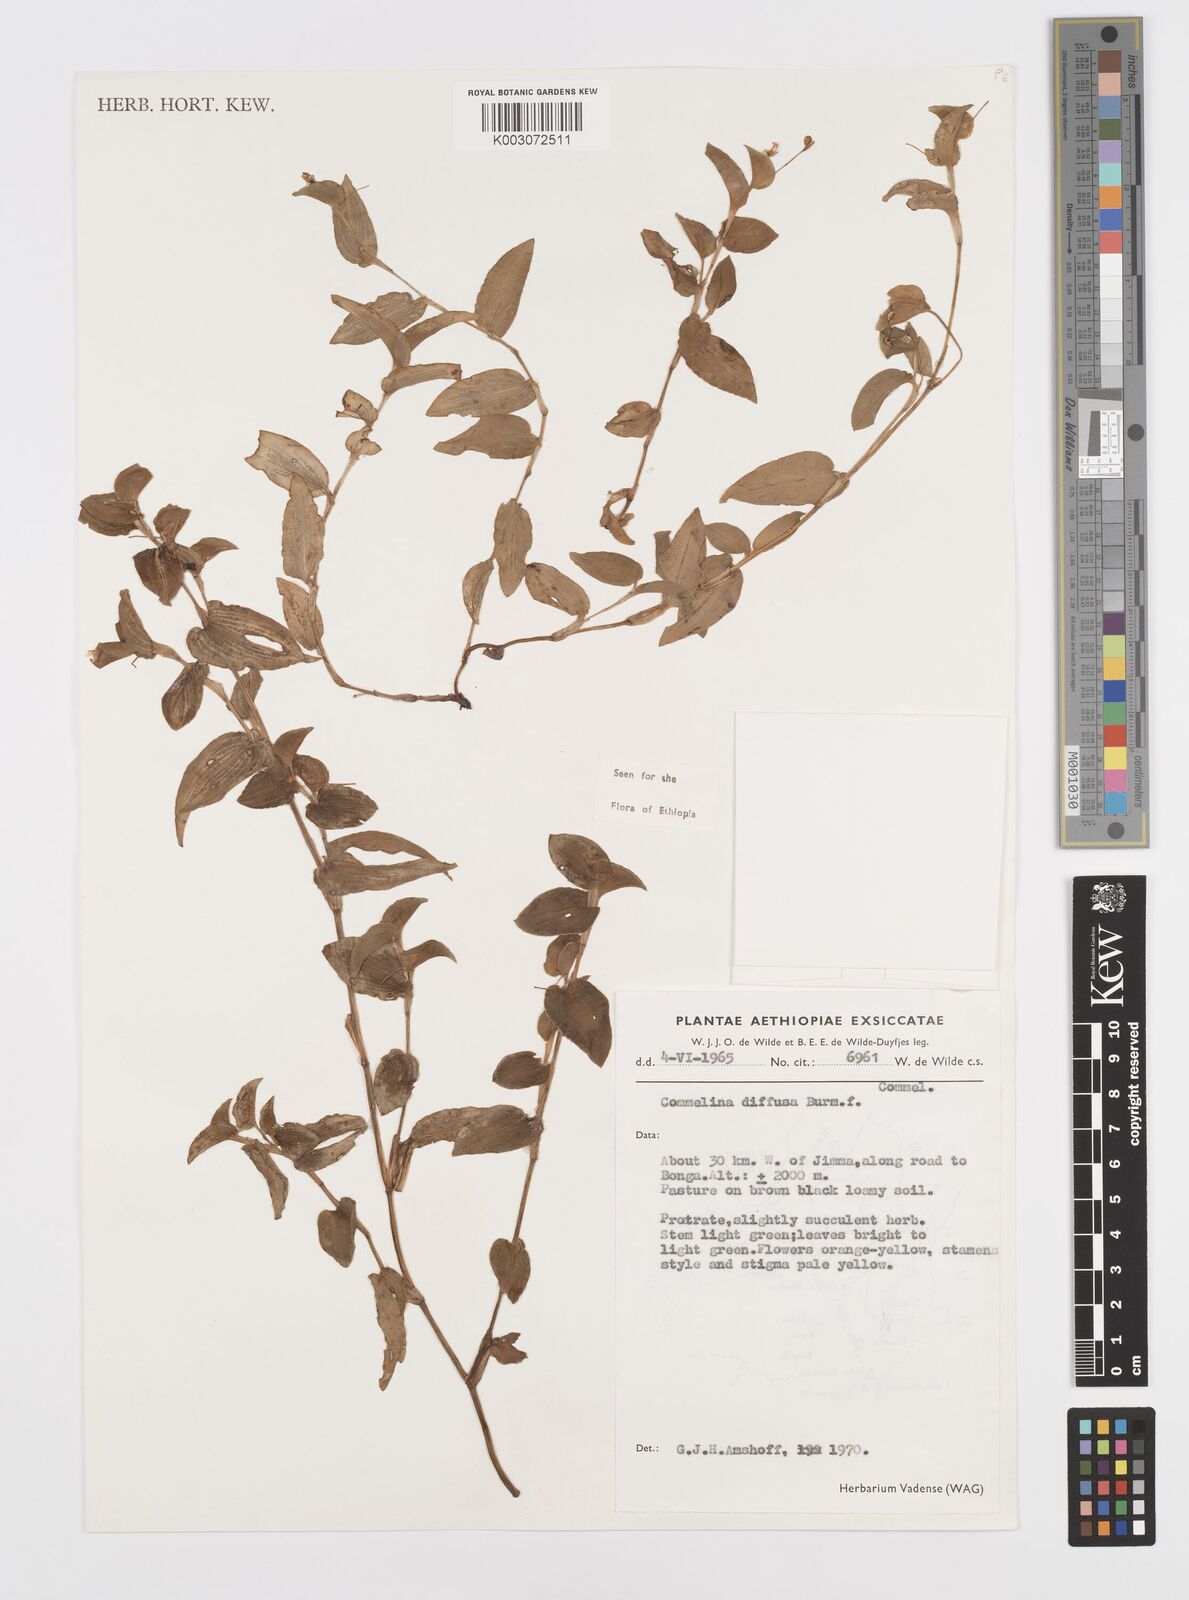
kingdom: Plantae
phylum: Tracheophyta
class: Liliopsida
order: Commelinales
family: Commelinaceae
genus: Commelina
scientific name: Commelina diffusa
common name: Climbing dayflower
